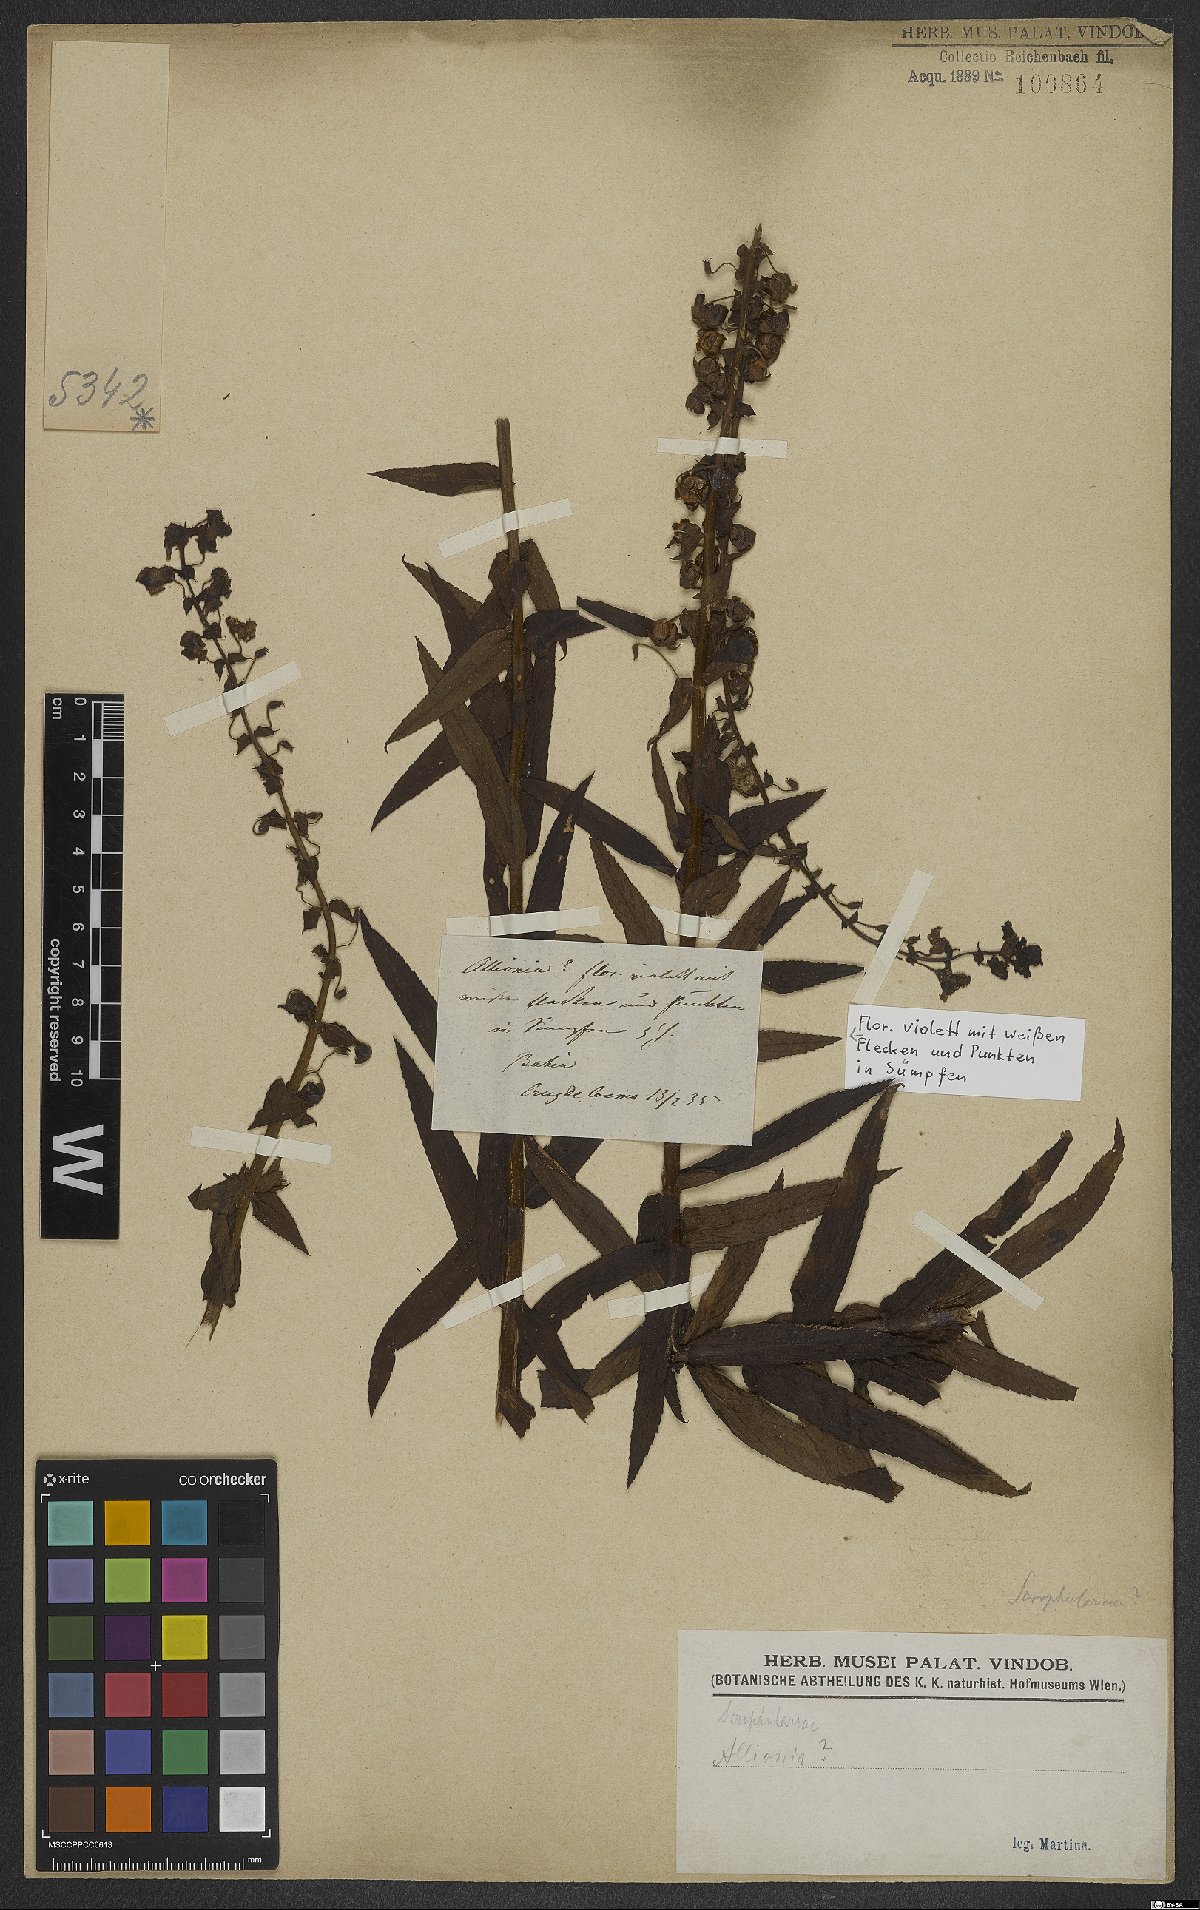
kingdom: Plantae
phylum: Tracheophyta
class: Magnoliopsida
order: Lamiales
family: Scrophulariaceae
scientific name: Scrophulariaceae
